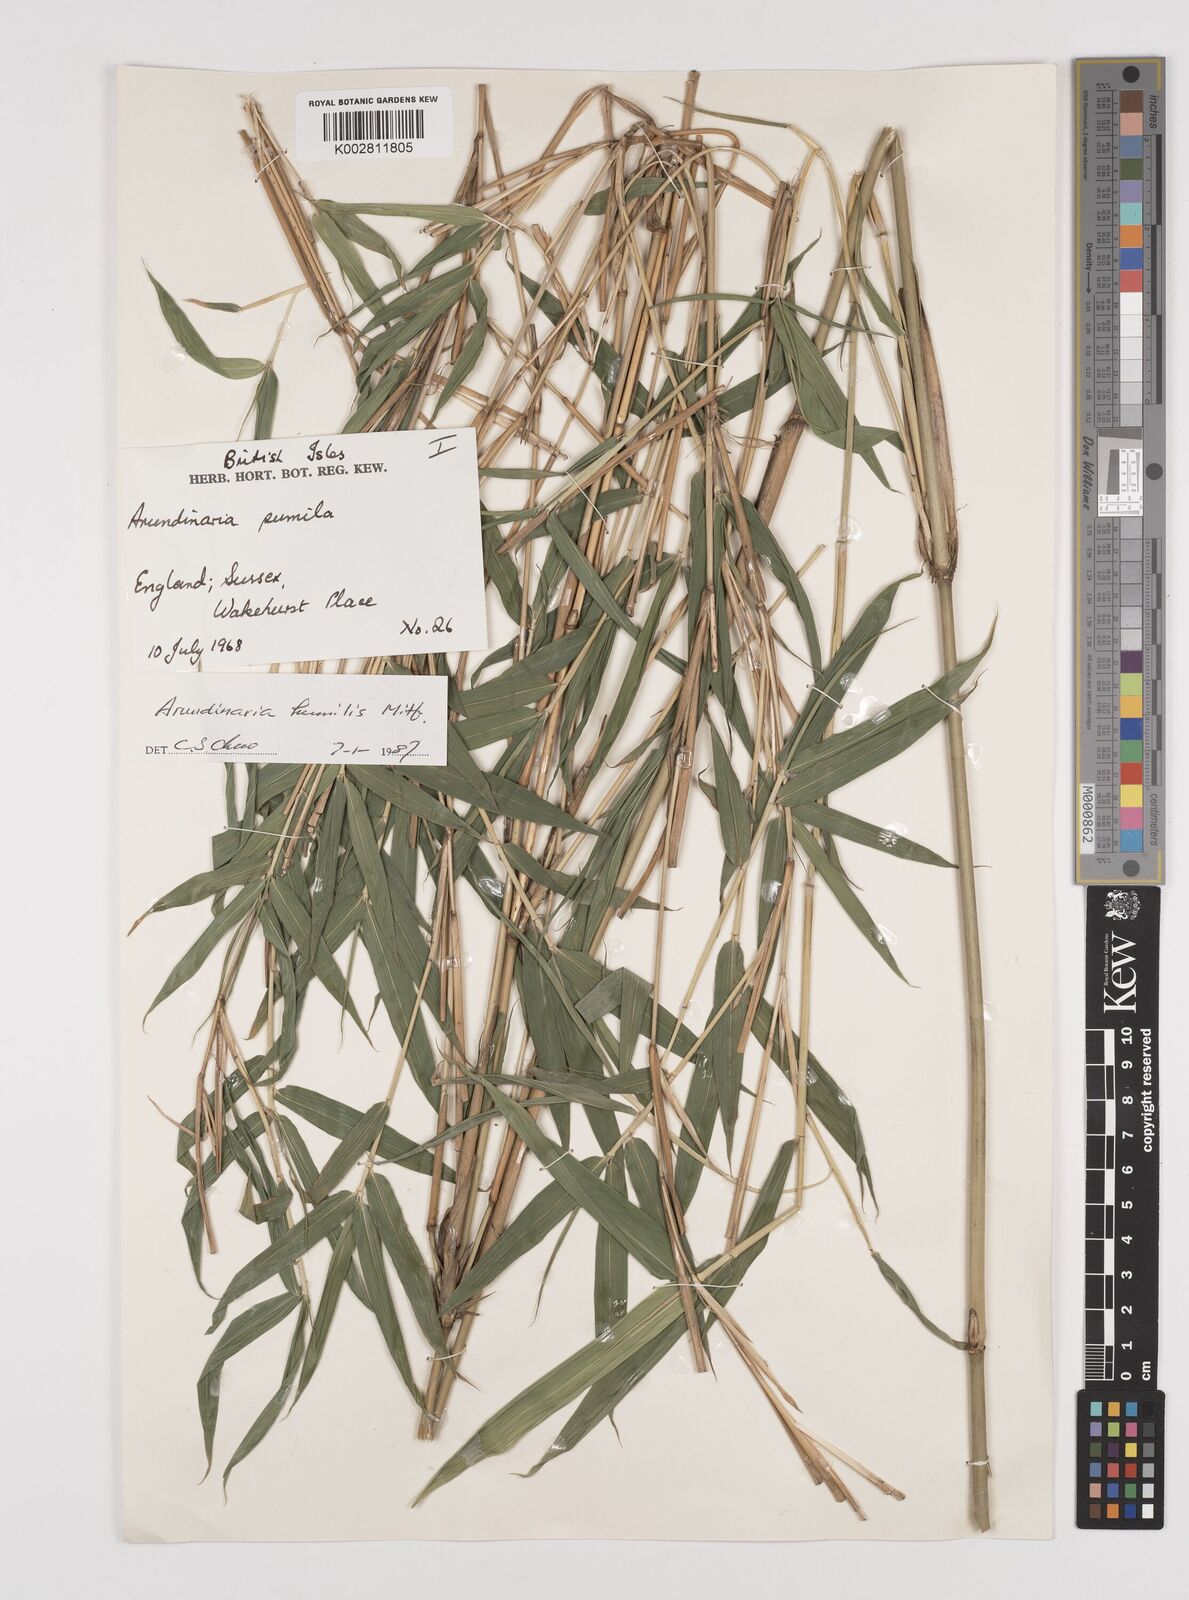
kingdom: Plantae
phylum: Tracheophyta
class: Liliopsida
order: Poales
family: Poaceae
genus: Pseudosasa
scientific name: Pseudosasa humilis
